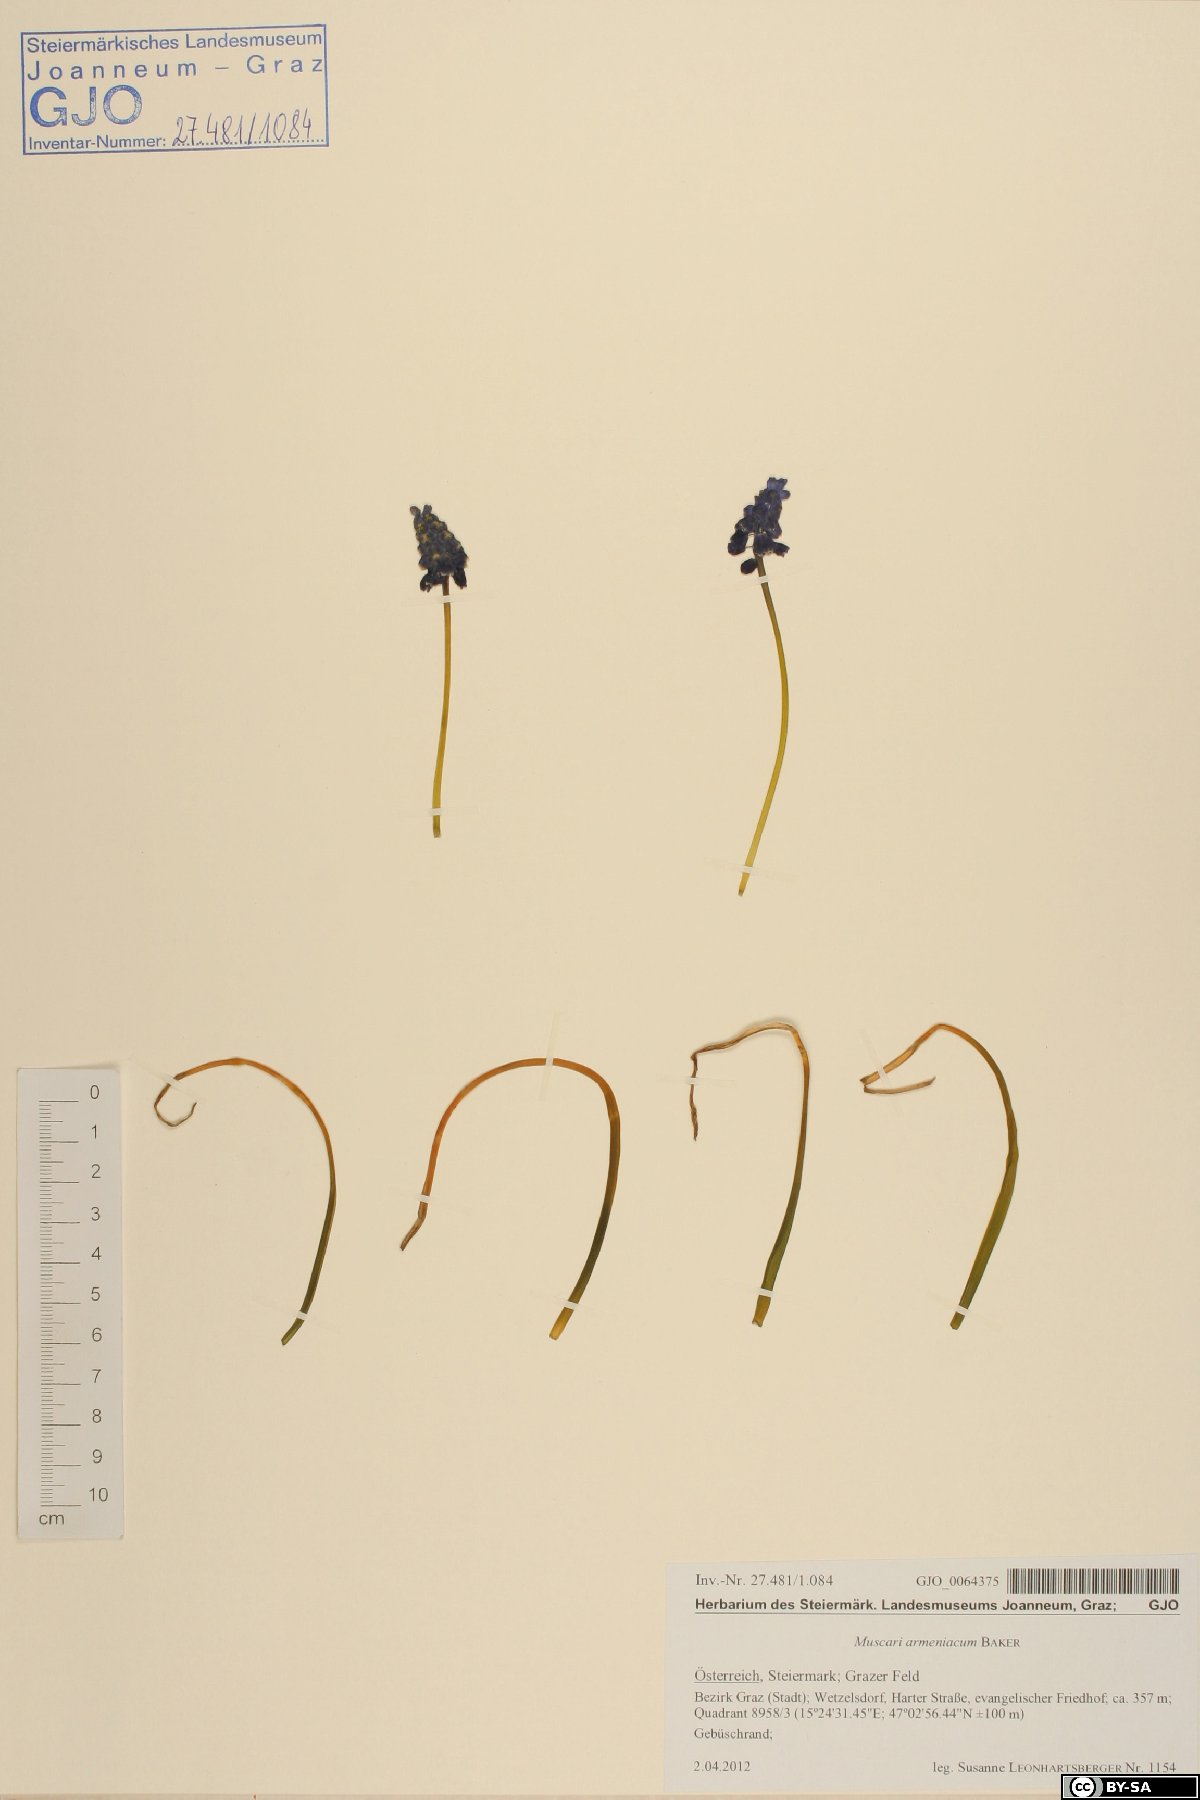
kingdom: Plantae
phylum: Tracheophyta
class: Liliopsida
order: Asparagales
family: Asparagaceae
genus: Muscari
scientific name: Muscari armeniacum
